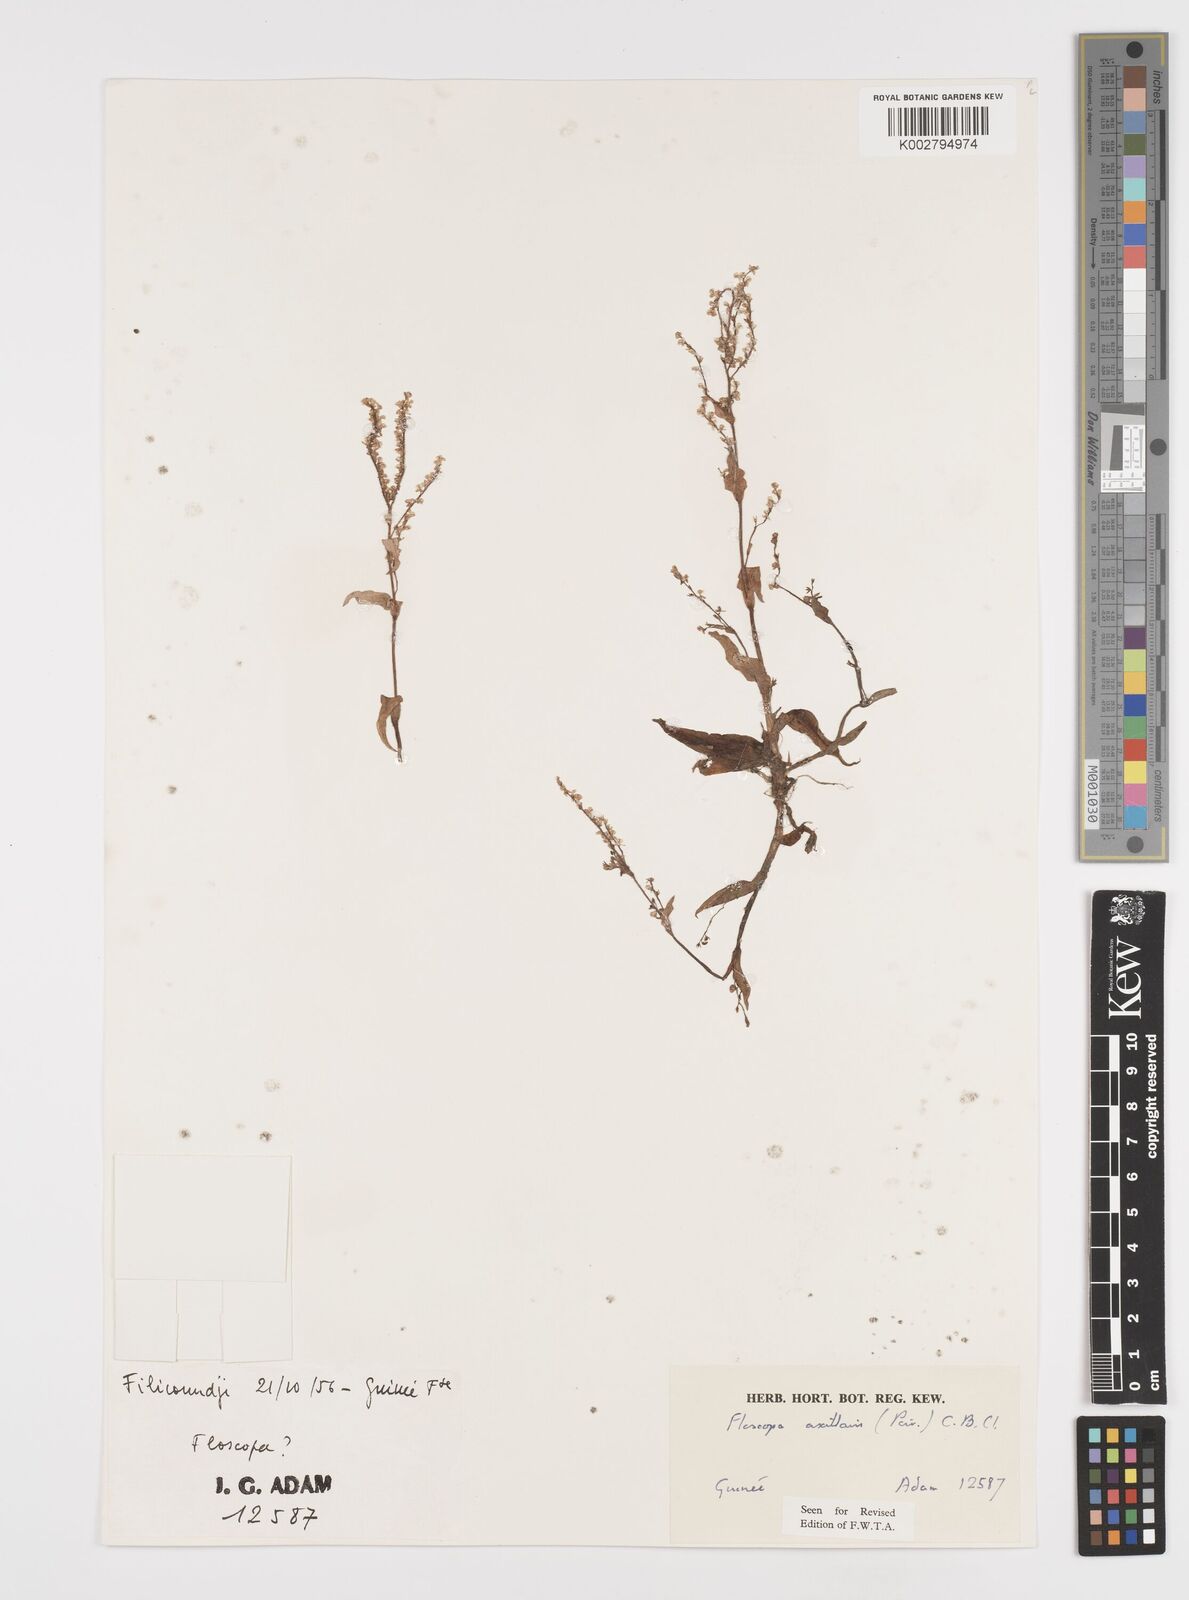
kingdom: Plantae
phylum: Tracheophyta
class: Liliopsida
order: Commelinales
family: Commelinaceae
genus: Floscopa
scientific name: Floscopa axillaris
